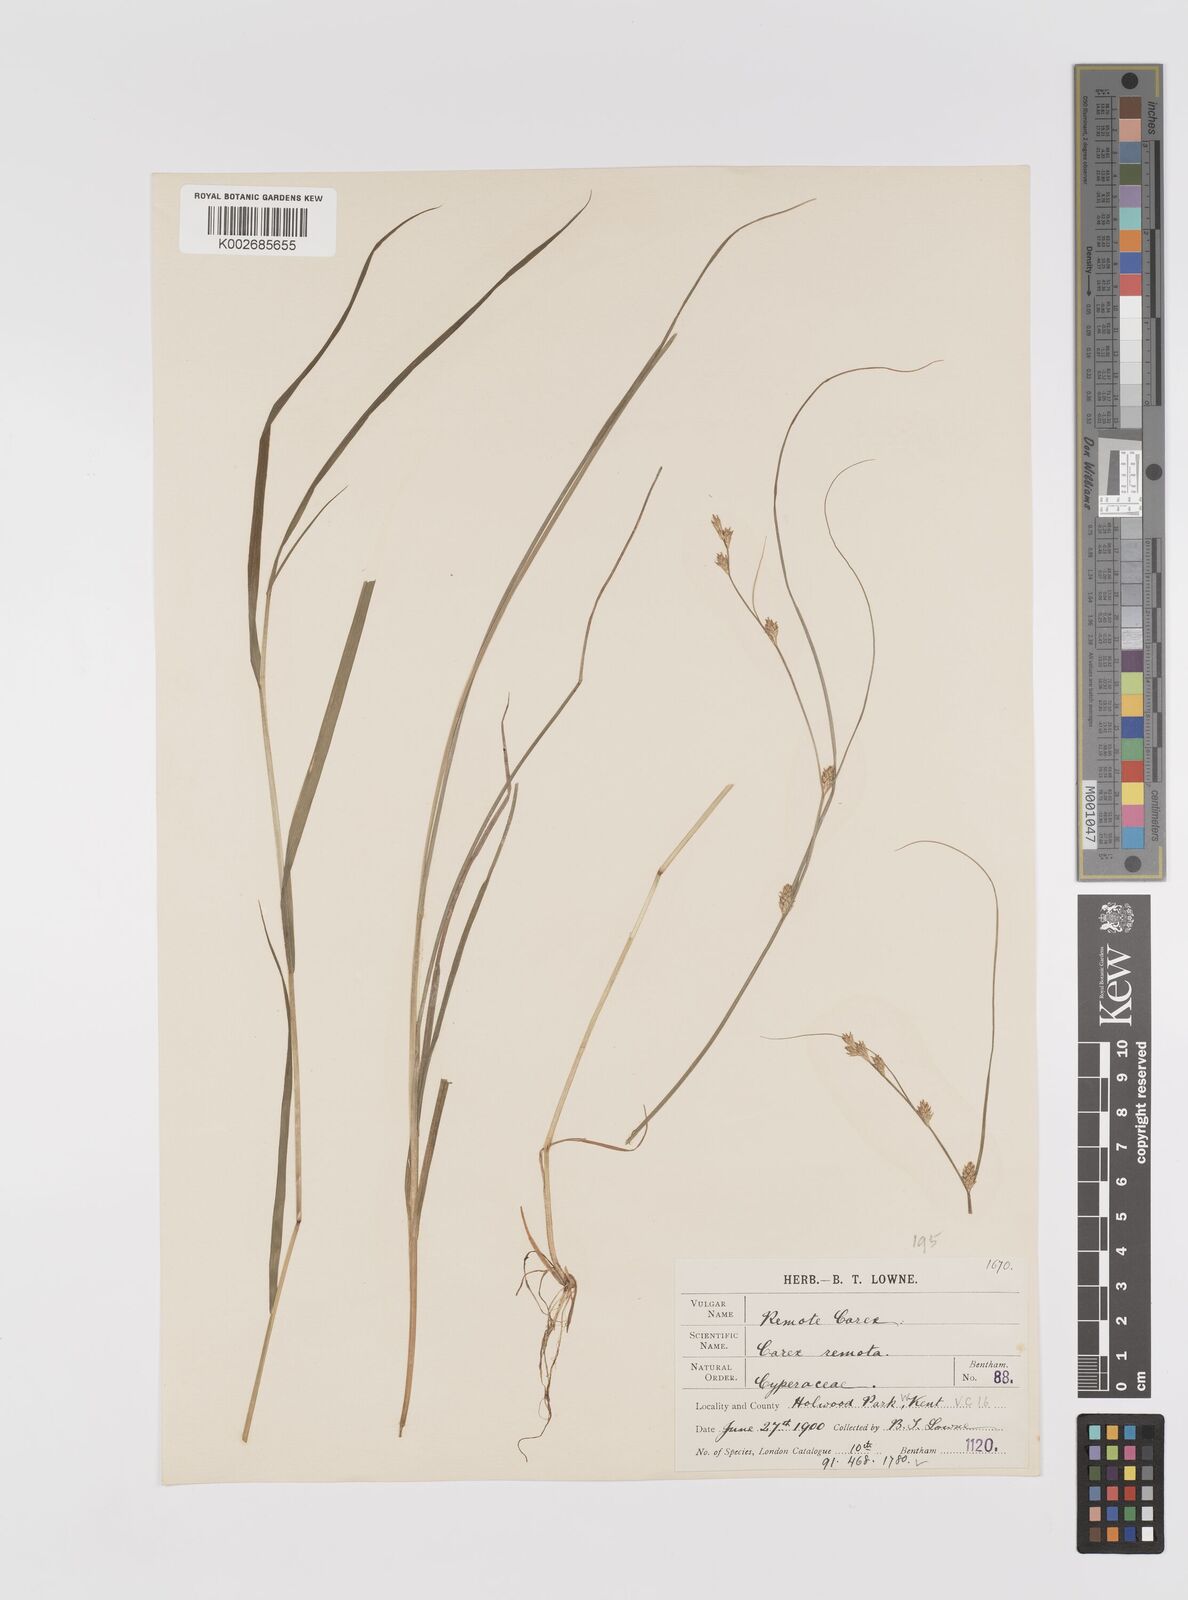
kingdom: Plantae
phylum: Tracheophyta
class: Liliopsida
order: Poales
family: Cyperaceae
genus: Carex
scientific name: Carex remota
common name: Remote sedge
